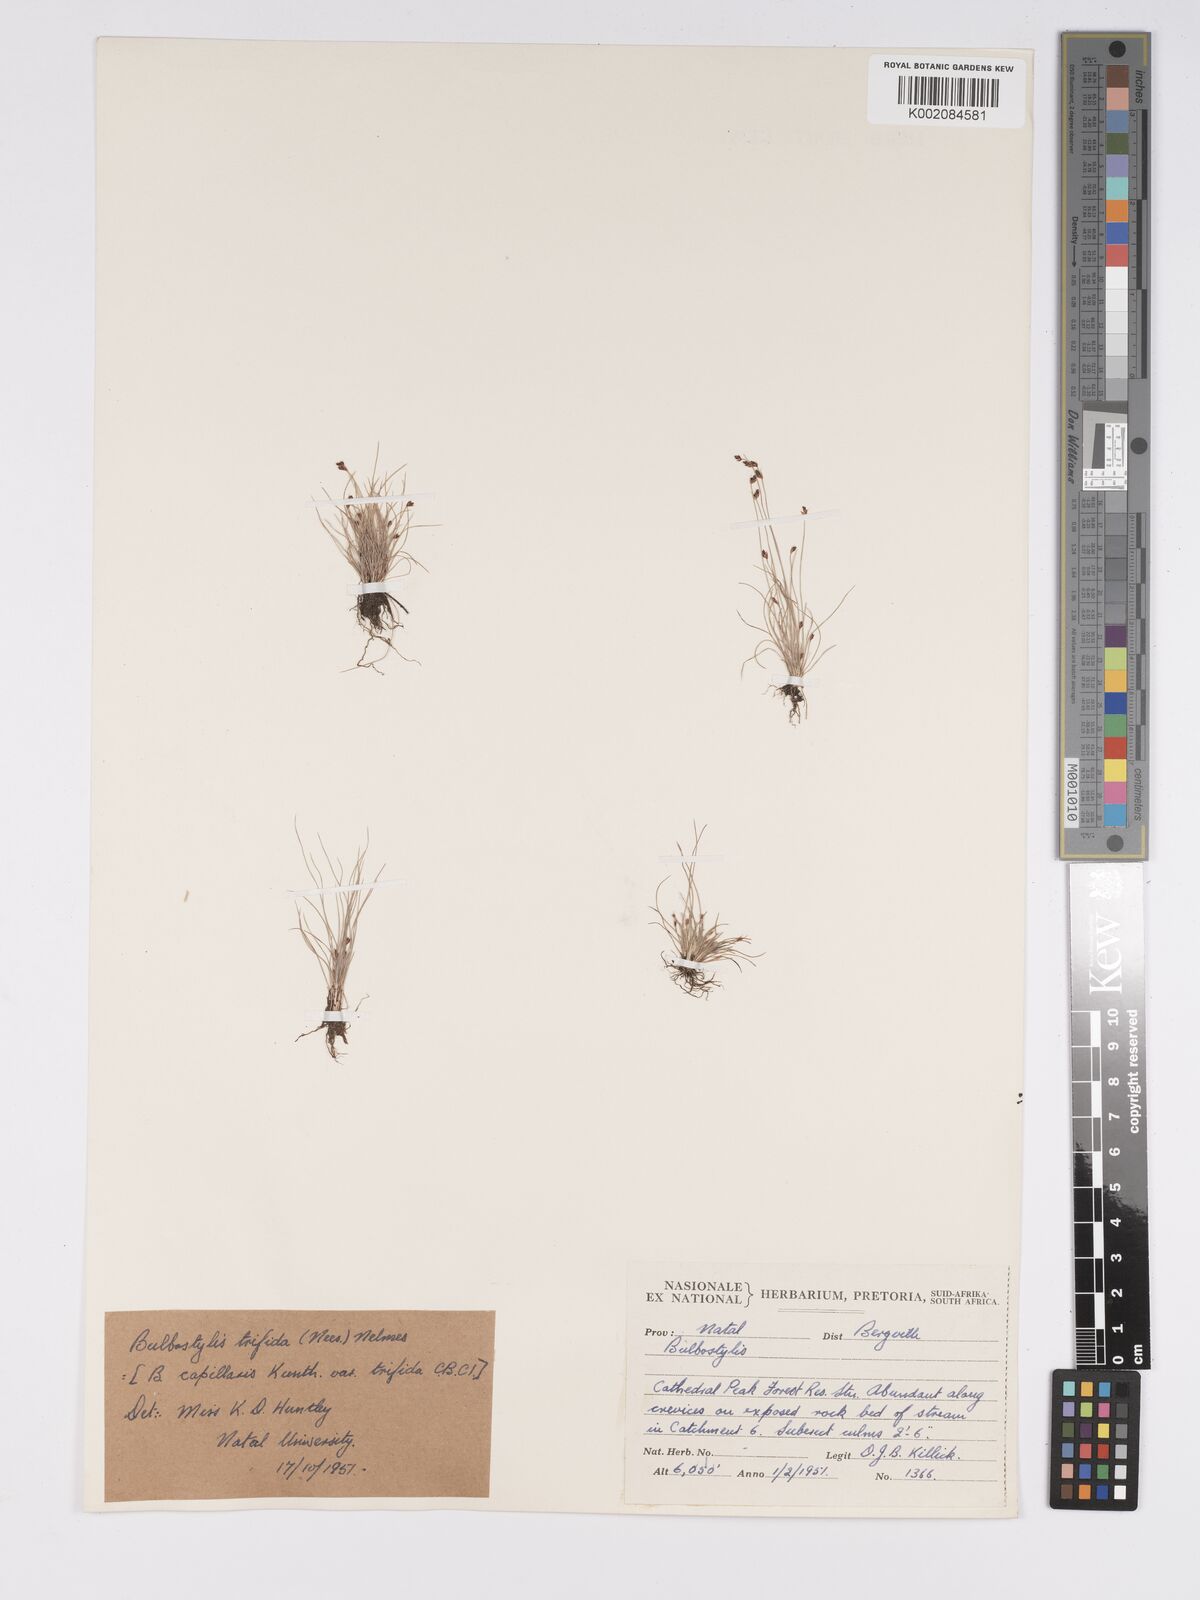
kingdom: Plantae
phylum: Tracheophyta
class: Liliopsida
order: Poales
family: Cyperaceae
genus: Bulbostylis
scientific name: Bulbostylis capillaris
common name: Densetuft hairsedge
